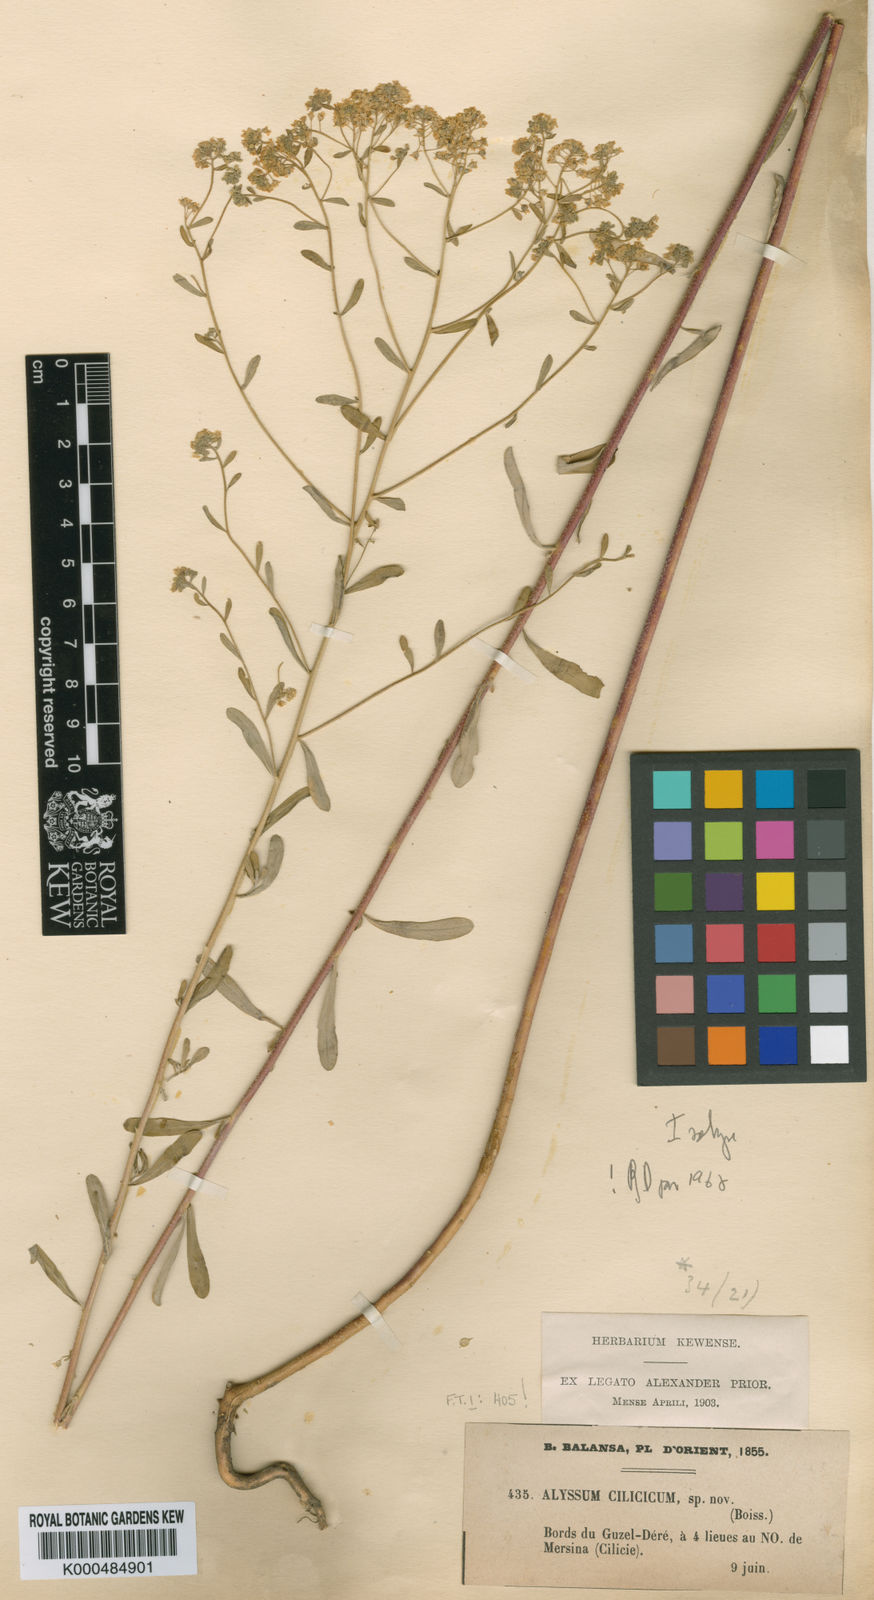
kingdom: Plantae
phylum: Tracheophyta
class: Magnoliopsida
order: Brassicales
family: Brassicaceae
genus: Odontarrhena
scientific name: Odontarrhena
